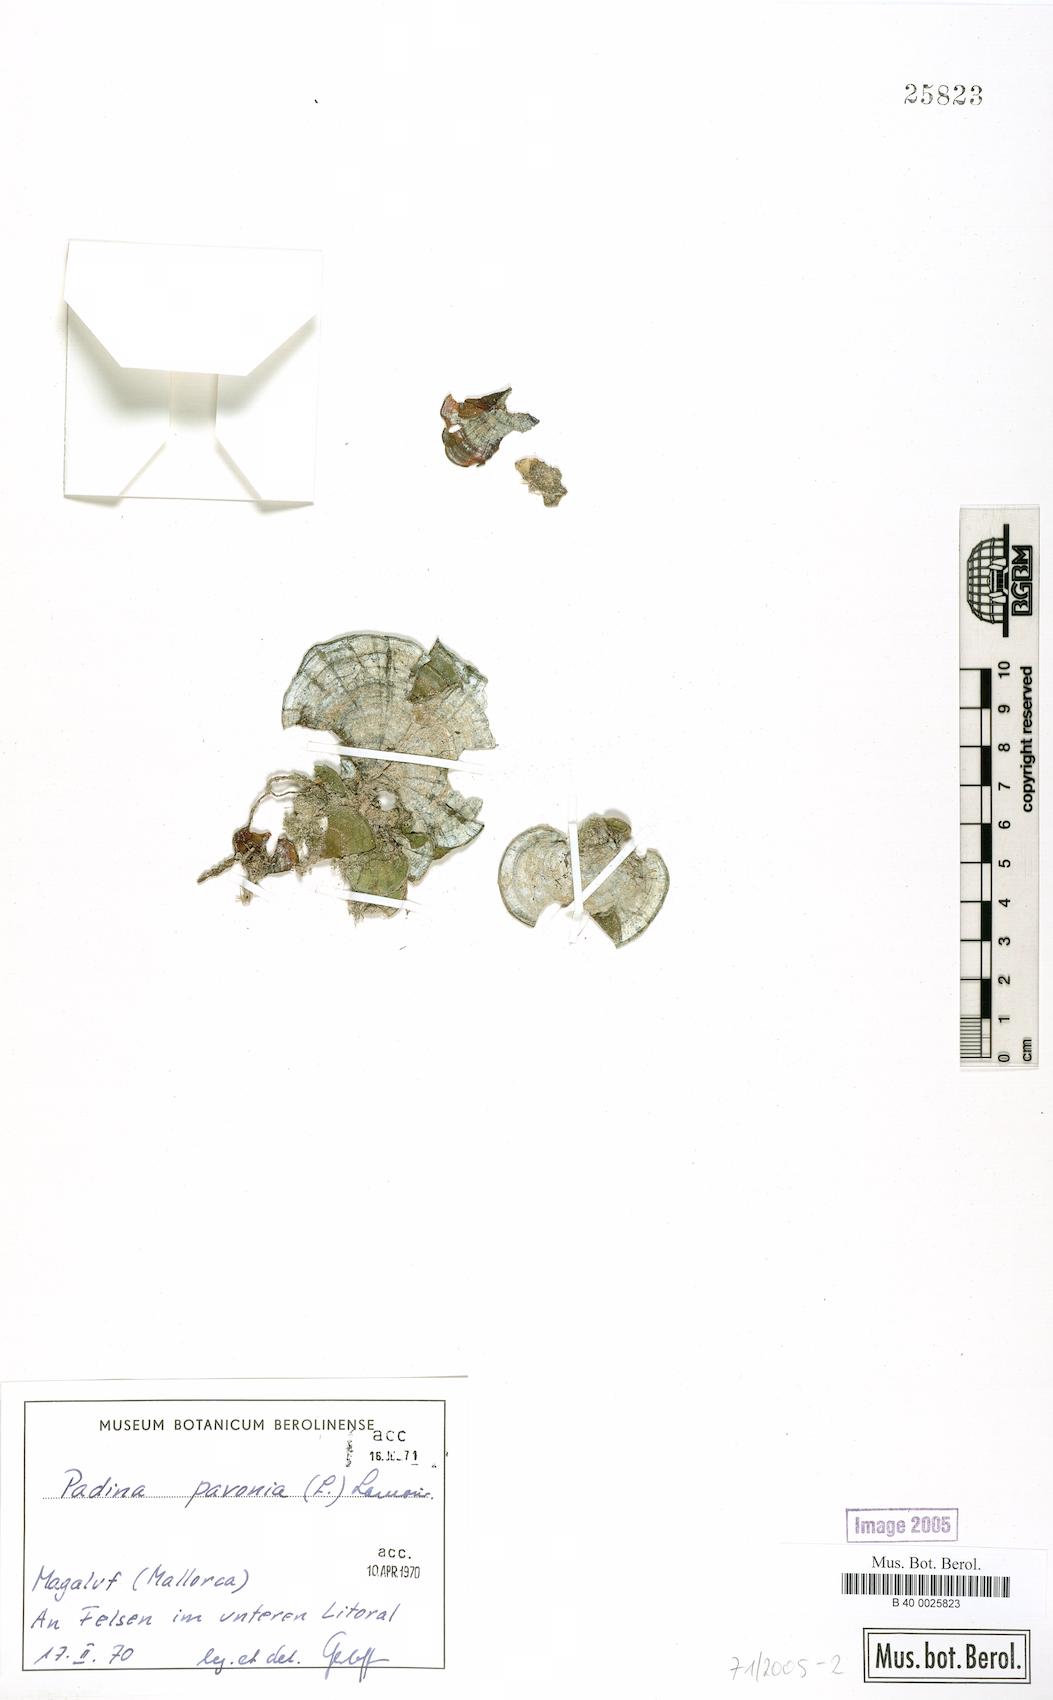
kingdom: Chromista
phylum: Ochrophyta
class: Phaeophyceae
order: Dictyotales
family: Dictyotaceae
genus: Padina
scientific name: Padina pavonica
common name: Turkey feather alga
